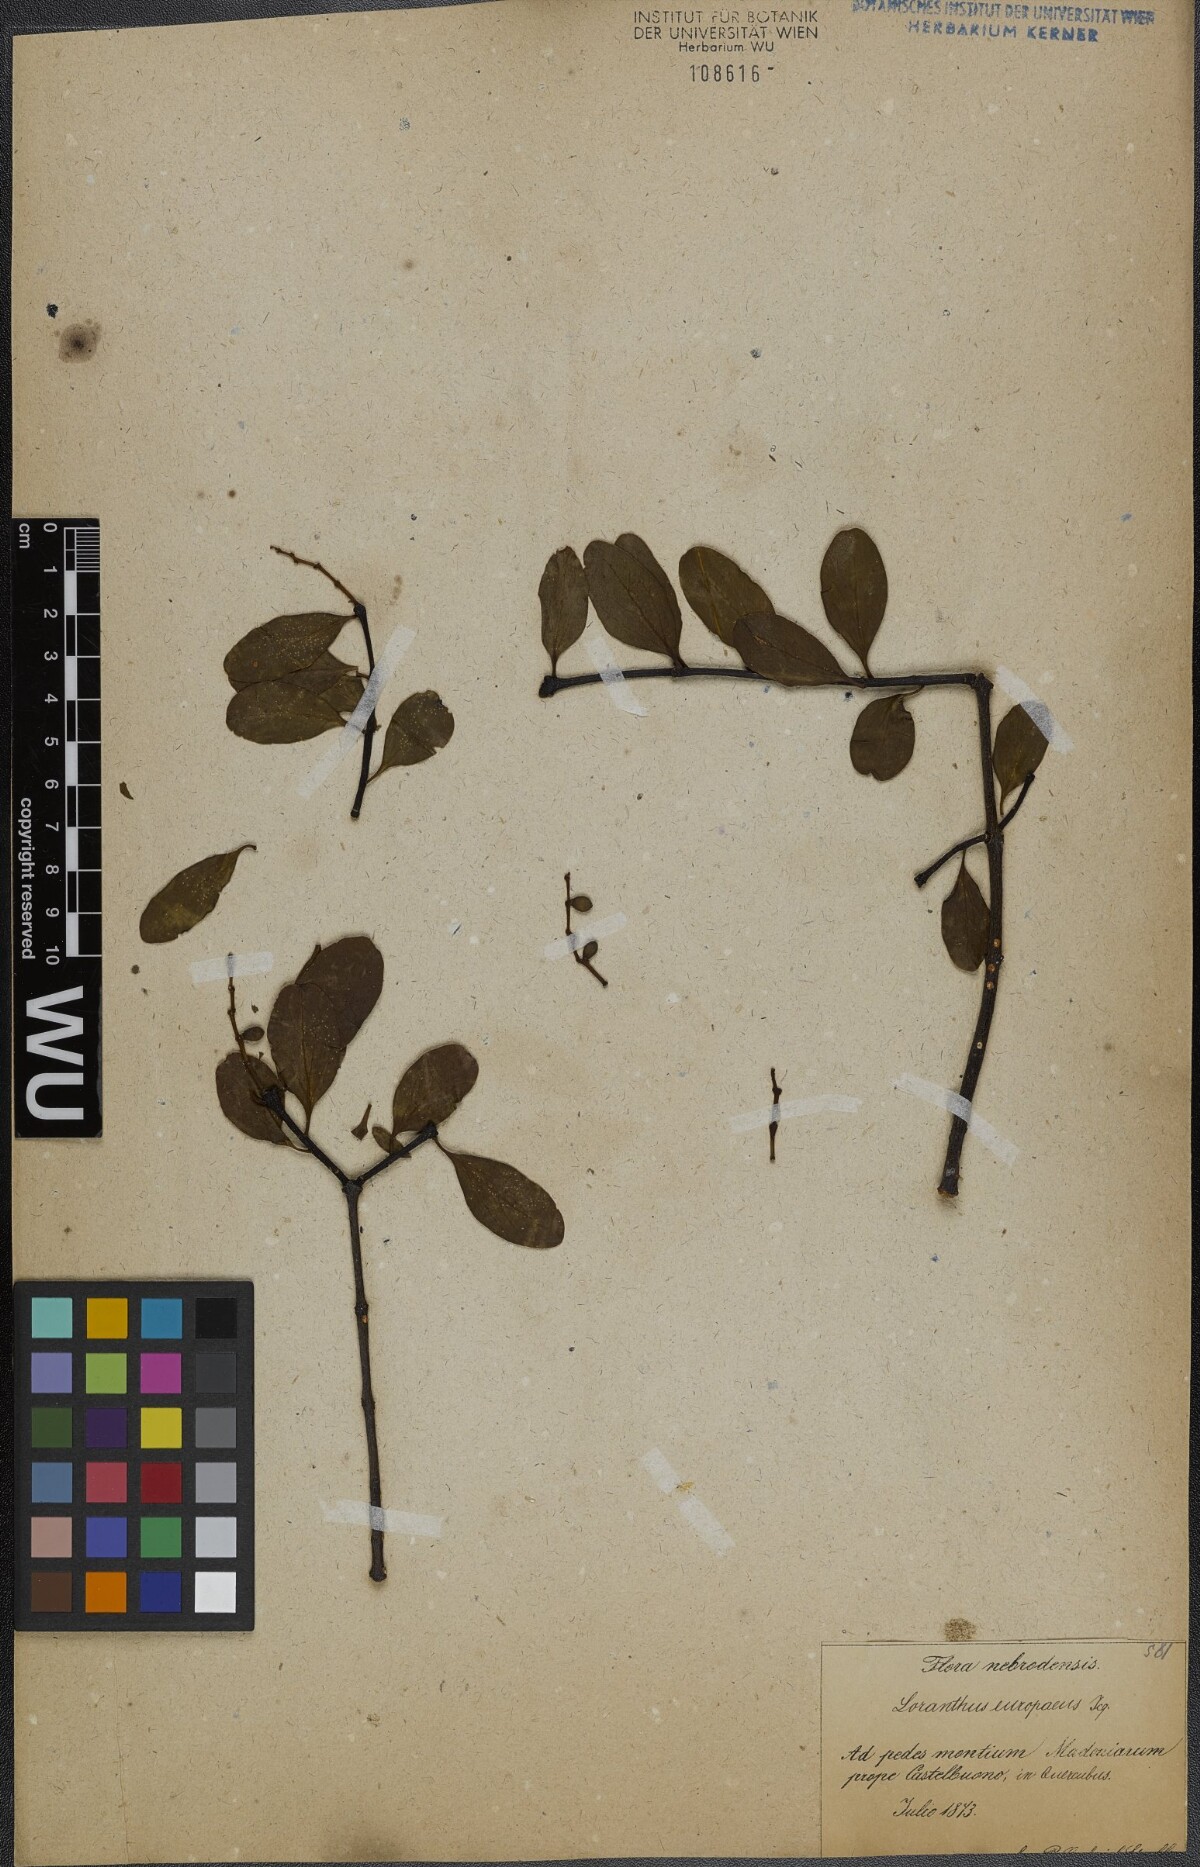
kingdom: Plantae
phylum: Tracheophyta
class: Magnoliopsida
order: Santalales
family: Loranthaceae
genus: Loranthus
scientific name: Loranthus europaeus
